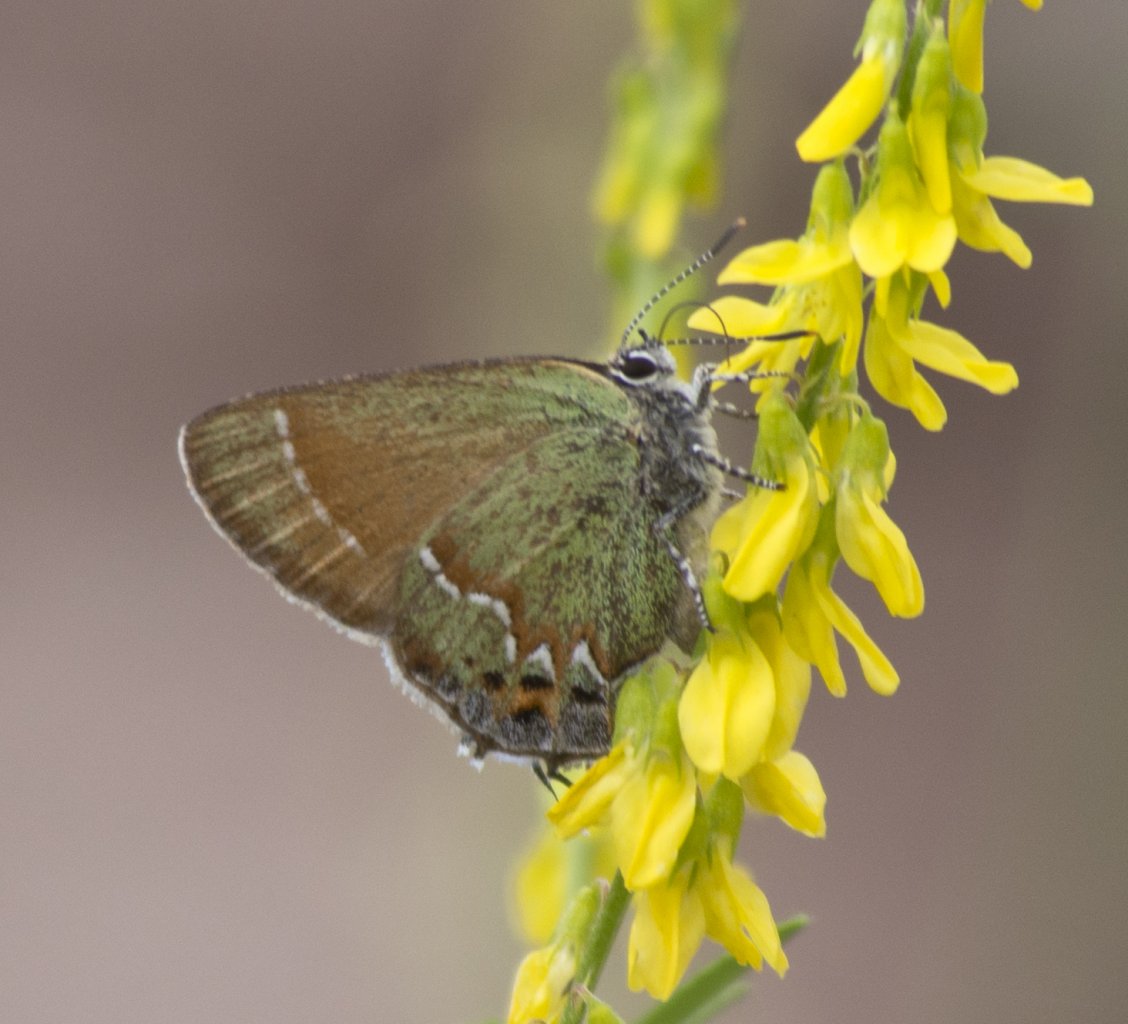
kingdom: Animalia
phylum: Arthropoda
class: Insecta
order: Lepidoptera
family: Lycaenidae
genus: Mitoura
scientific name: Mitoura gryneus
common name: Juniper Hairstreak
